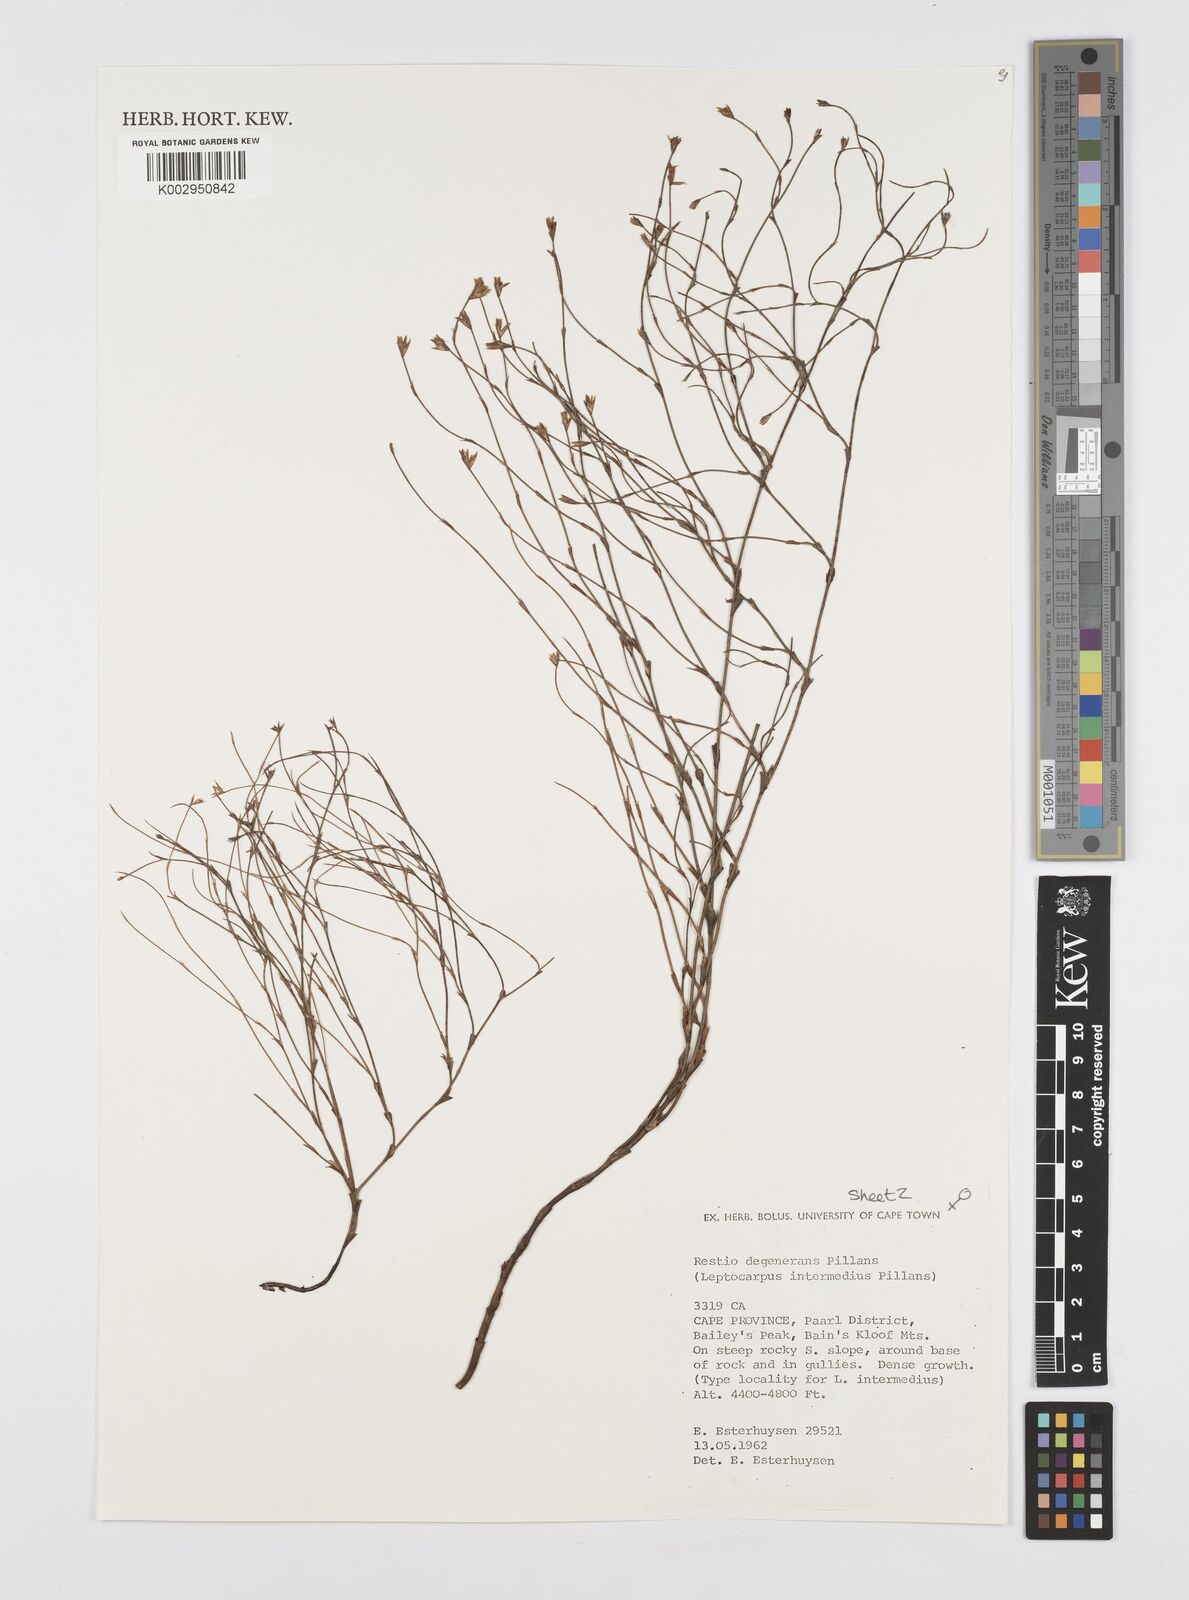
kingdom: Plantae
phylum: Tracheophyta
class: Liliopsida
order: Poales
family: Restionaceae
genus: Restio
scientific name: Restio degenerans
